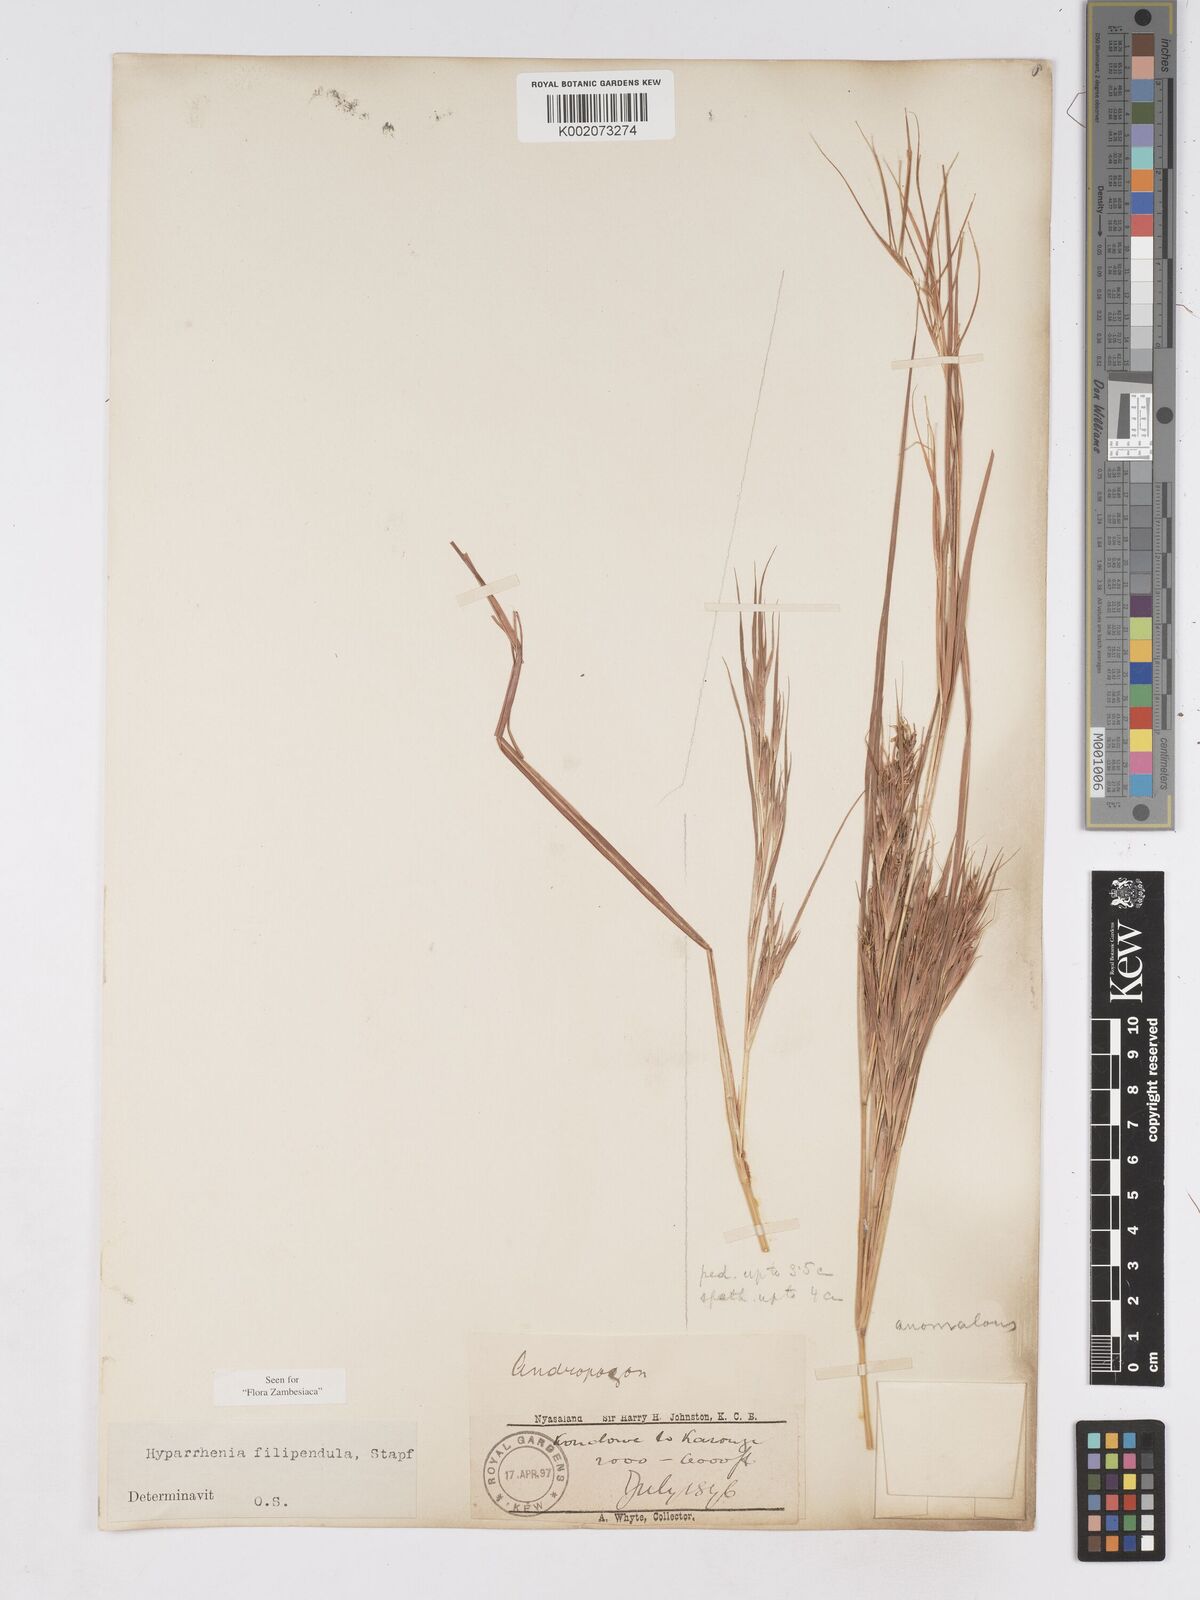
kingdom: Plantae
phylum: Tracheophyta
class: Liliopsida
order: Poales
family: Poaceae
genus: Hyparrhenia
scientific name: Hyparrhenia filipendula
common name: Tambookie grass
